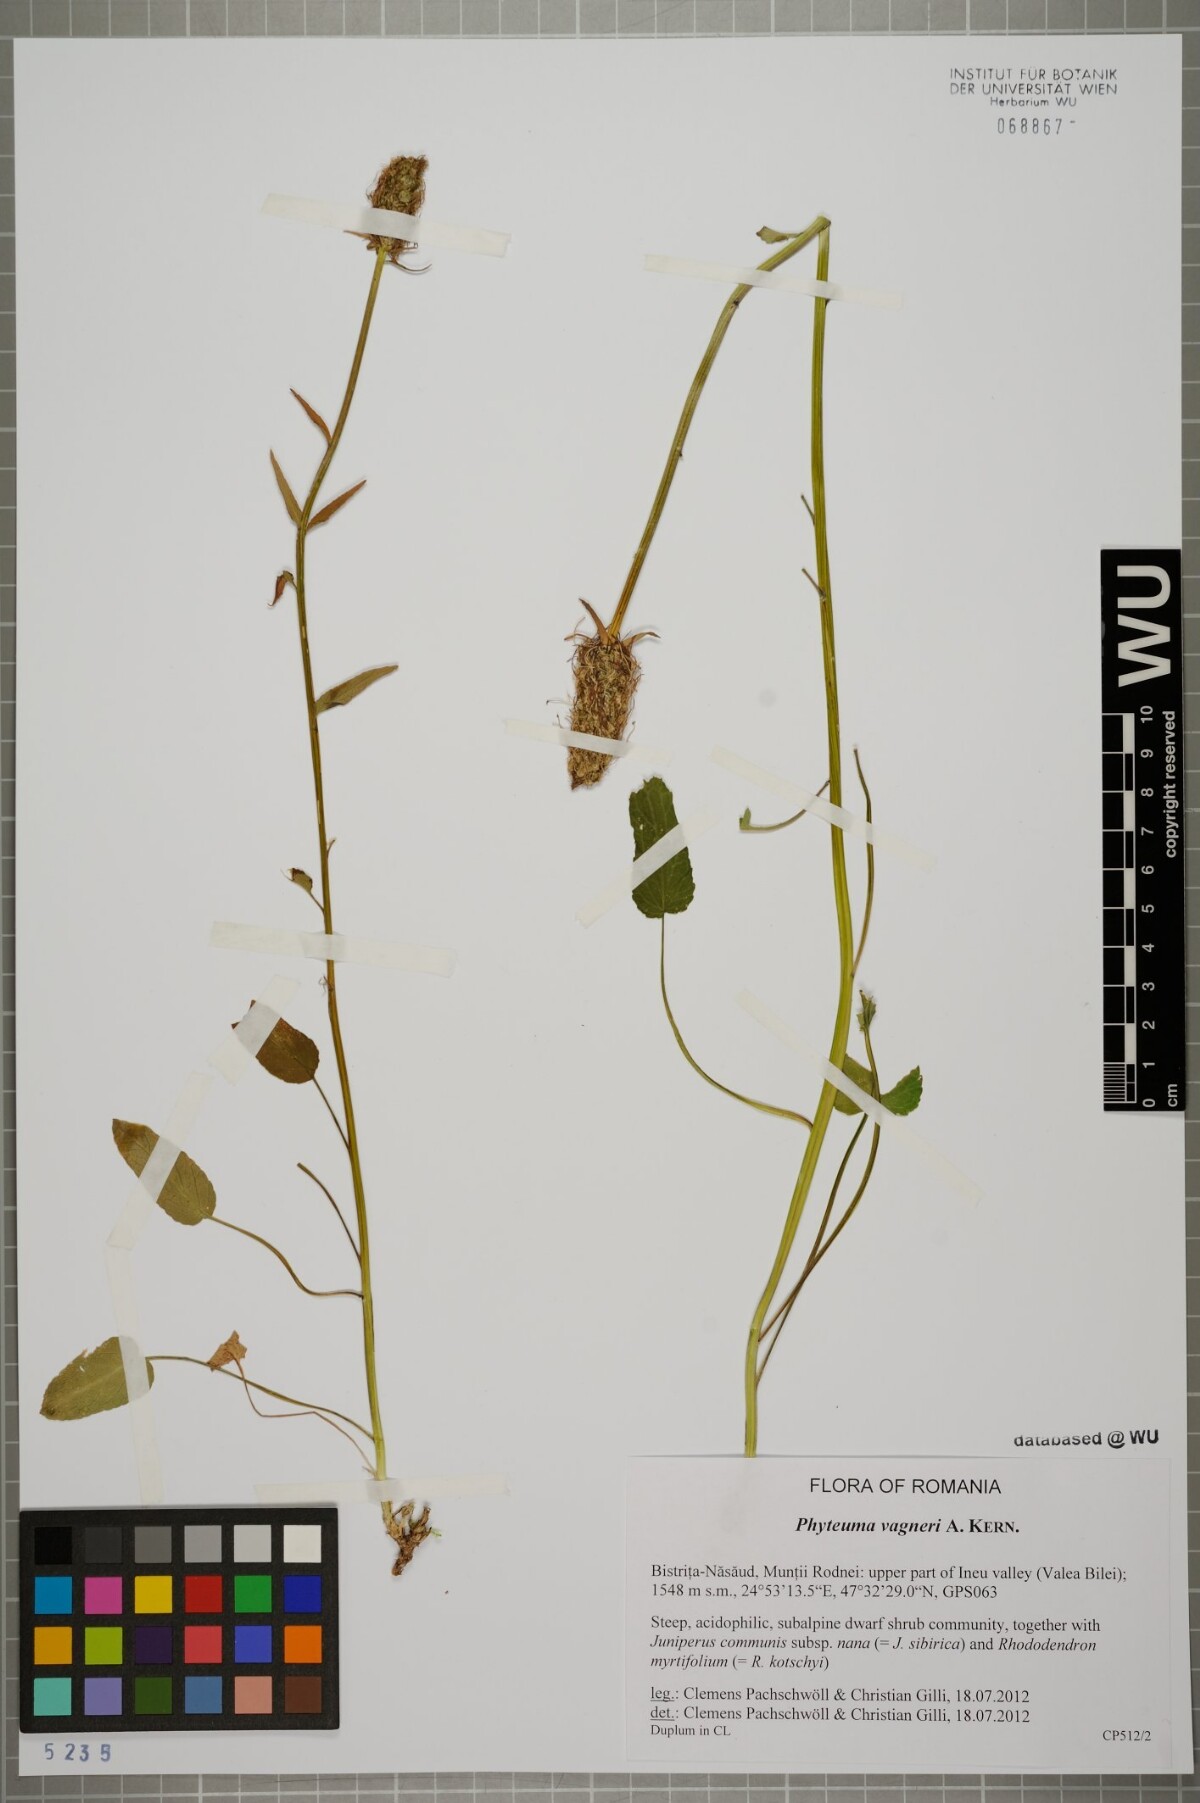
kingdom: Plantae
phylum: Tracheophyta
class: Magnoliopsida
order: Asterales
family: Campanulaceae
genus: Phyteuma
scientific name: Phyteuma vagneri
